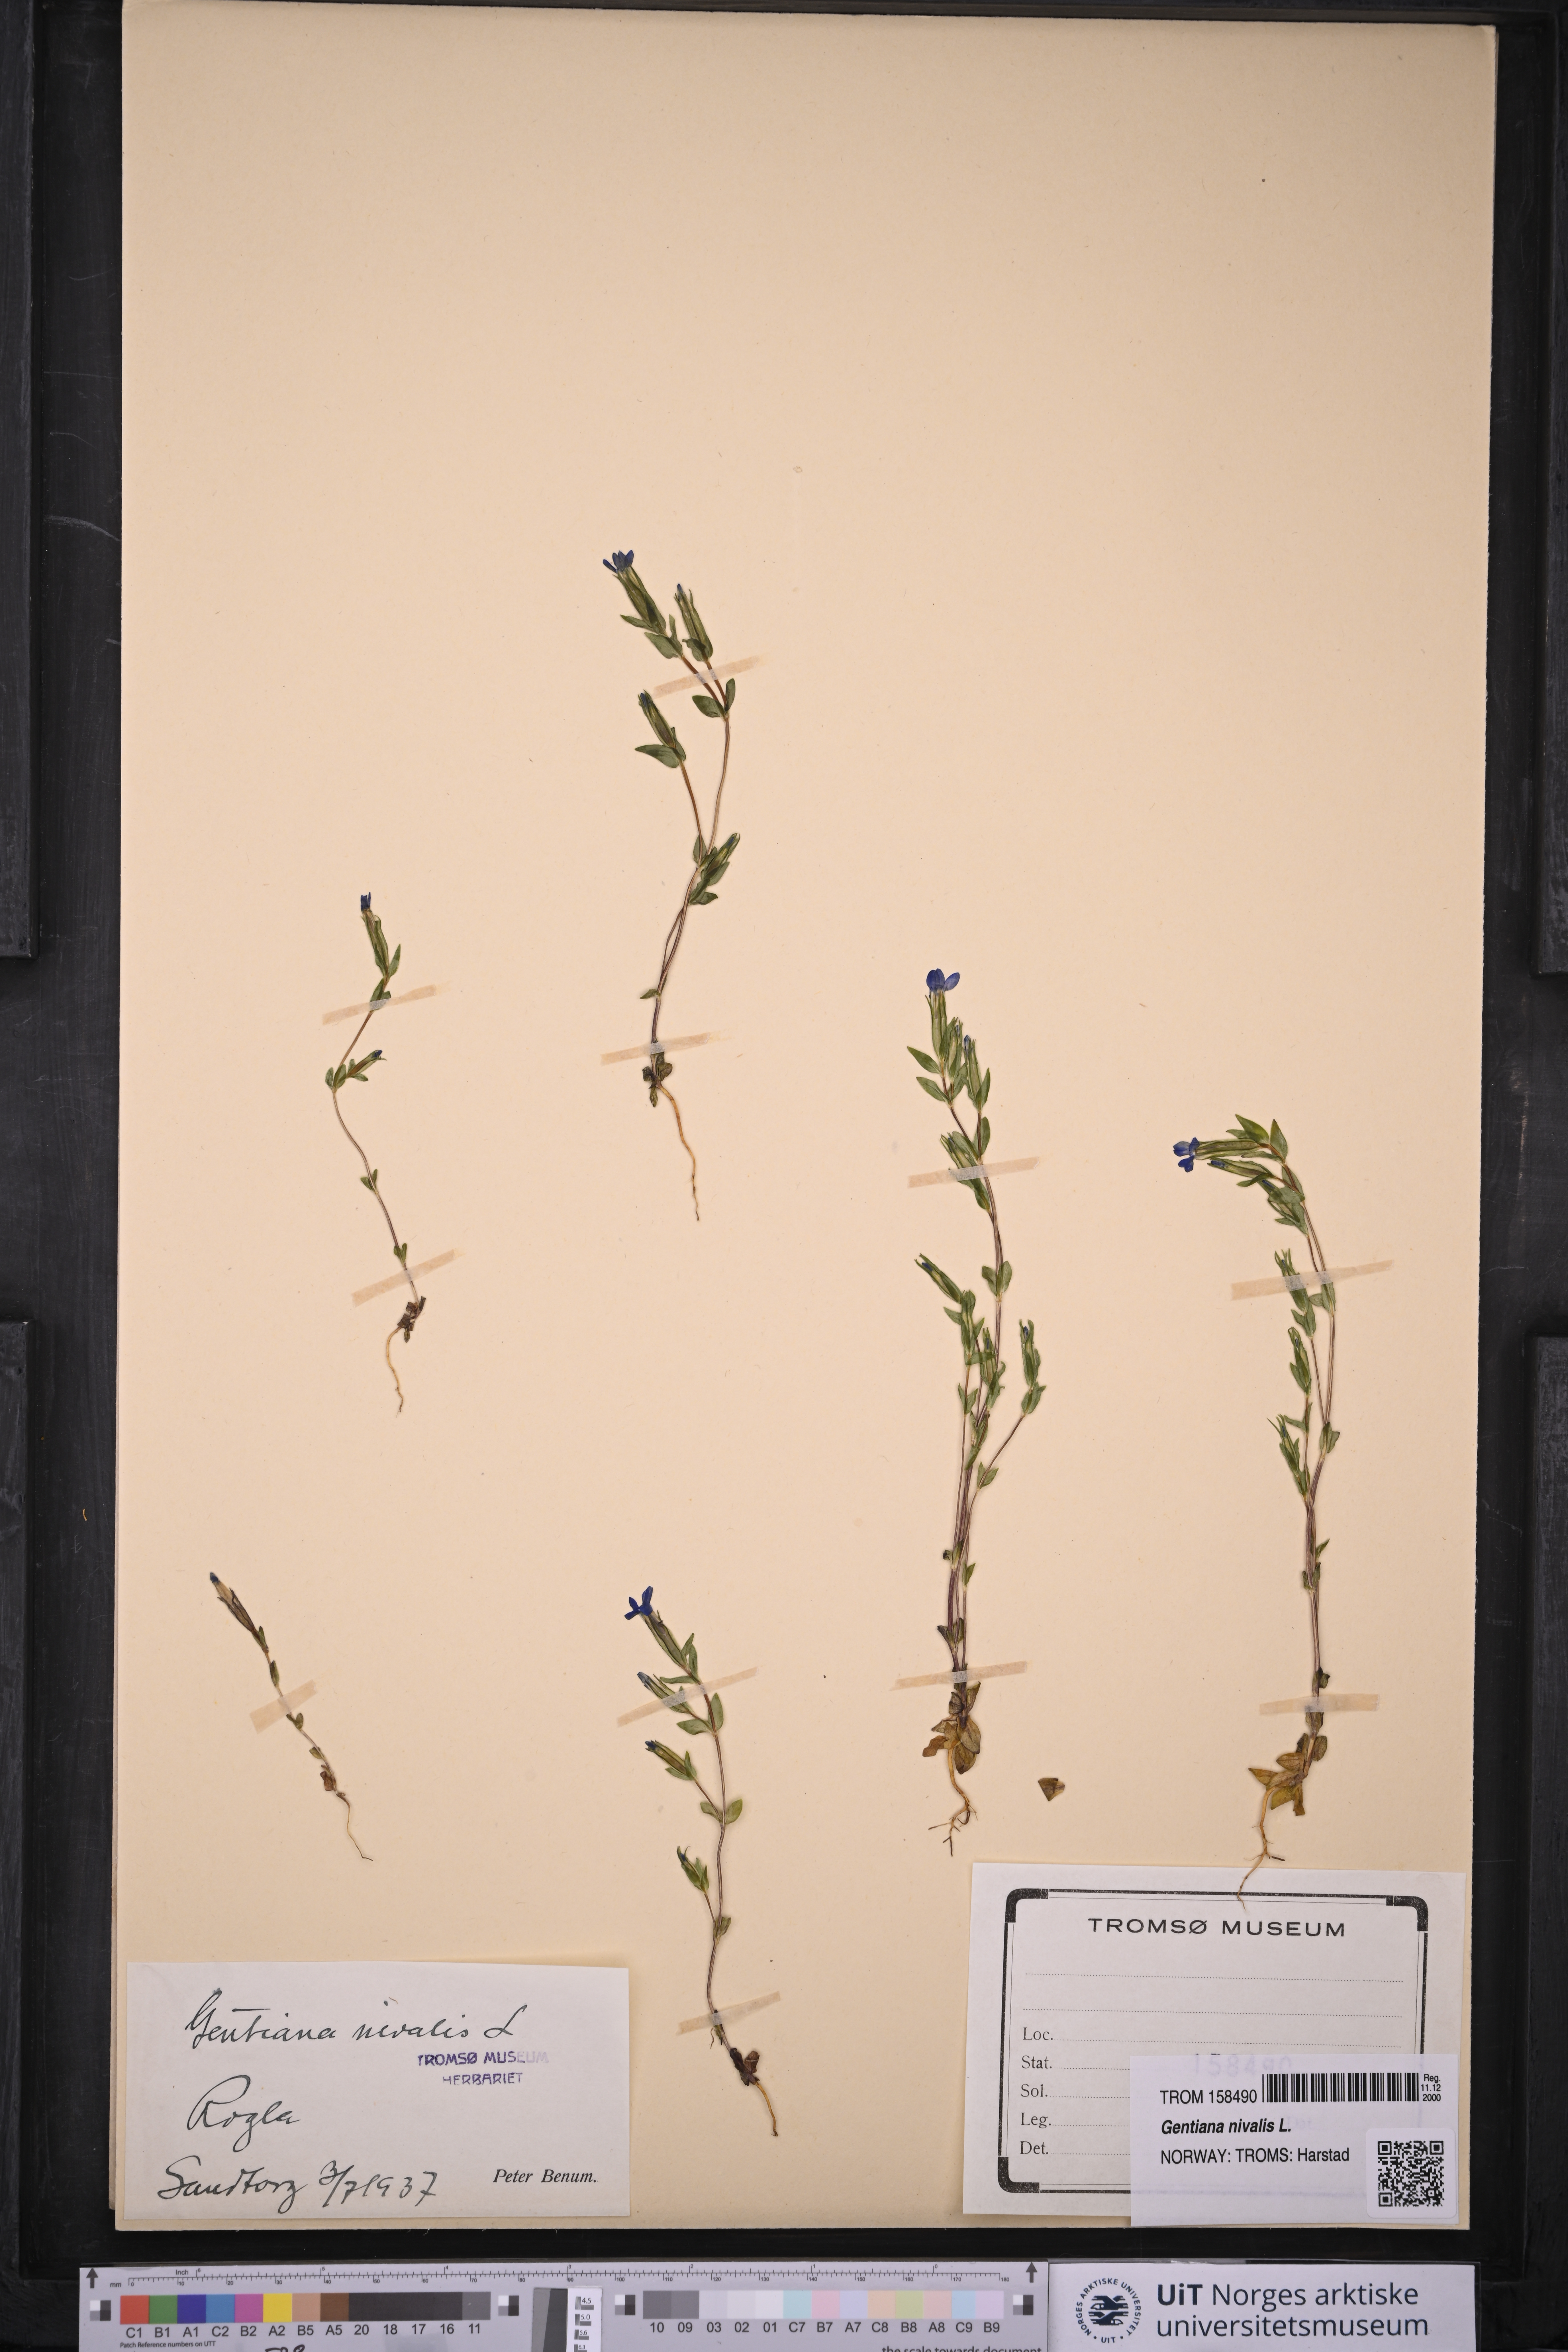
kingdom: Plantae
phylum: Tracheophyta
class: Magnoliopsida
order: Gentianales
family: Gentianaceae
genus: Gentiana
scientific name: Gentiana nivalis
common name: Alpine gentian
